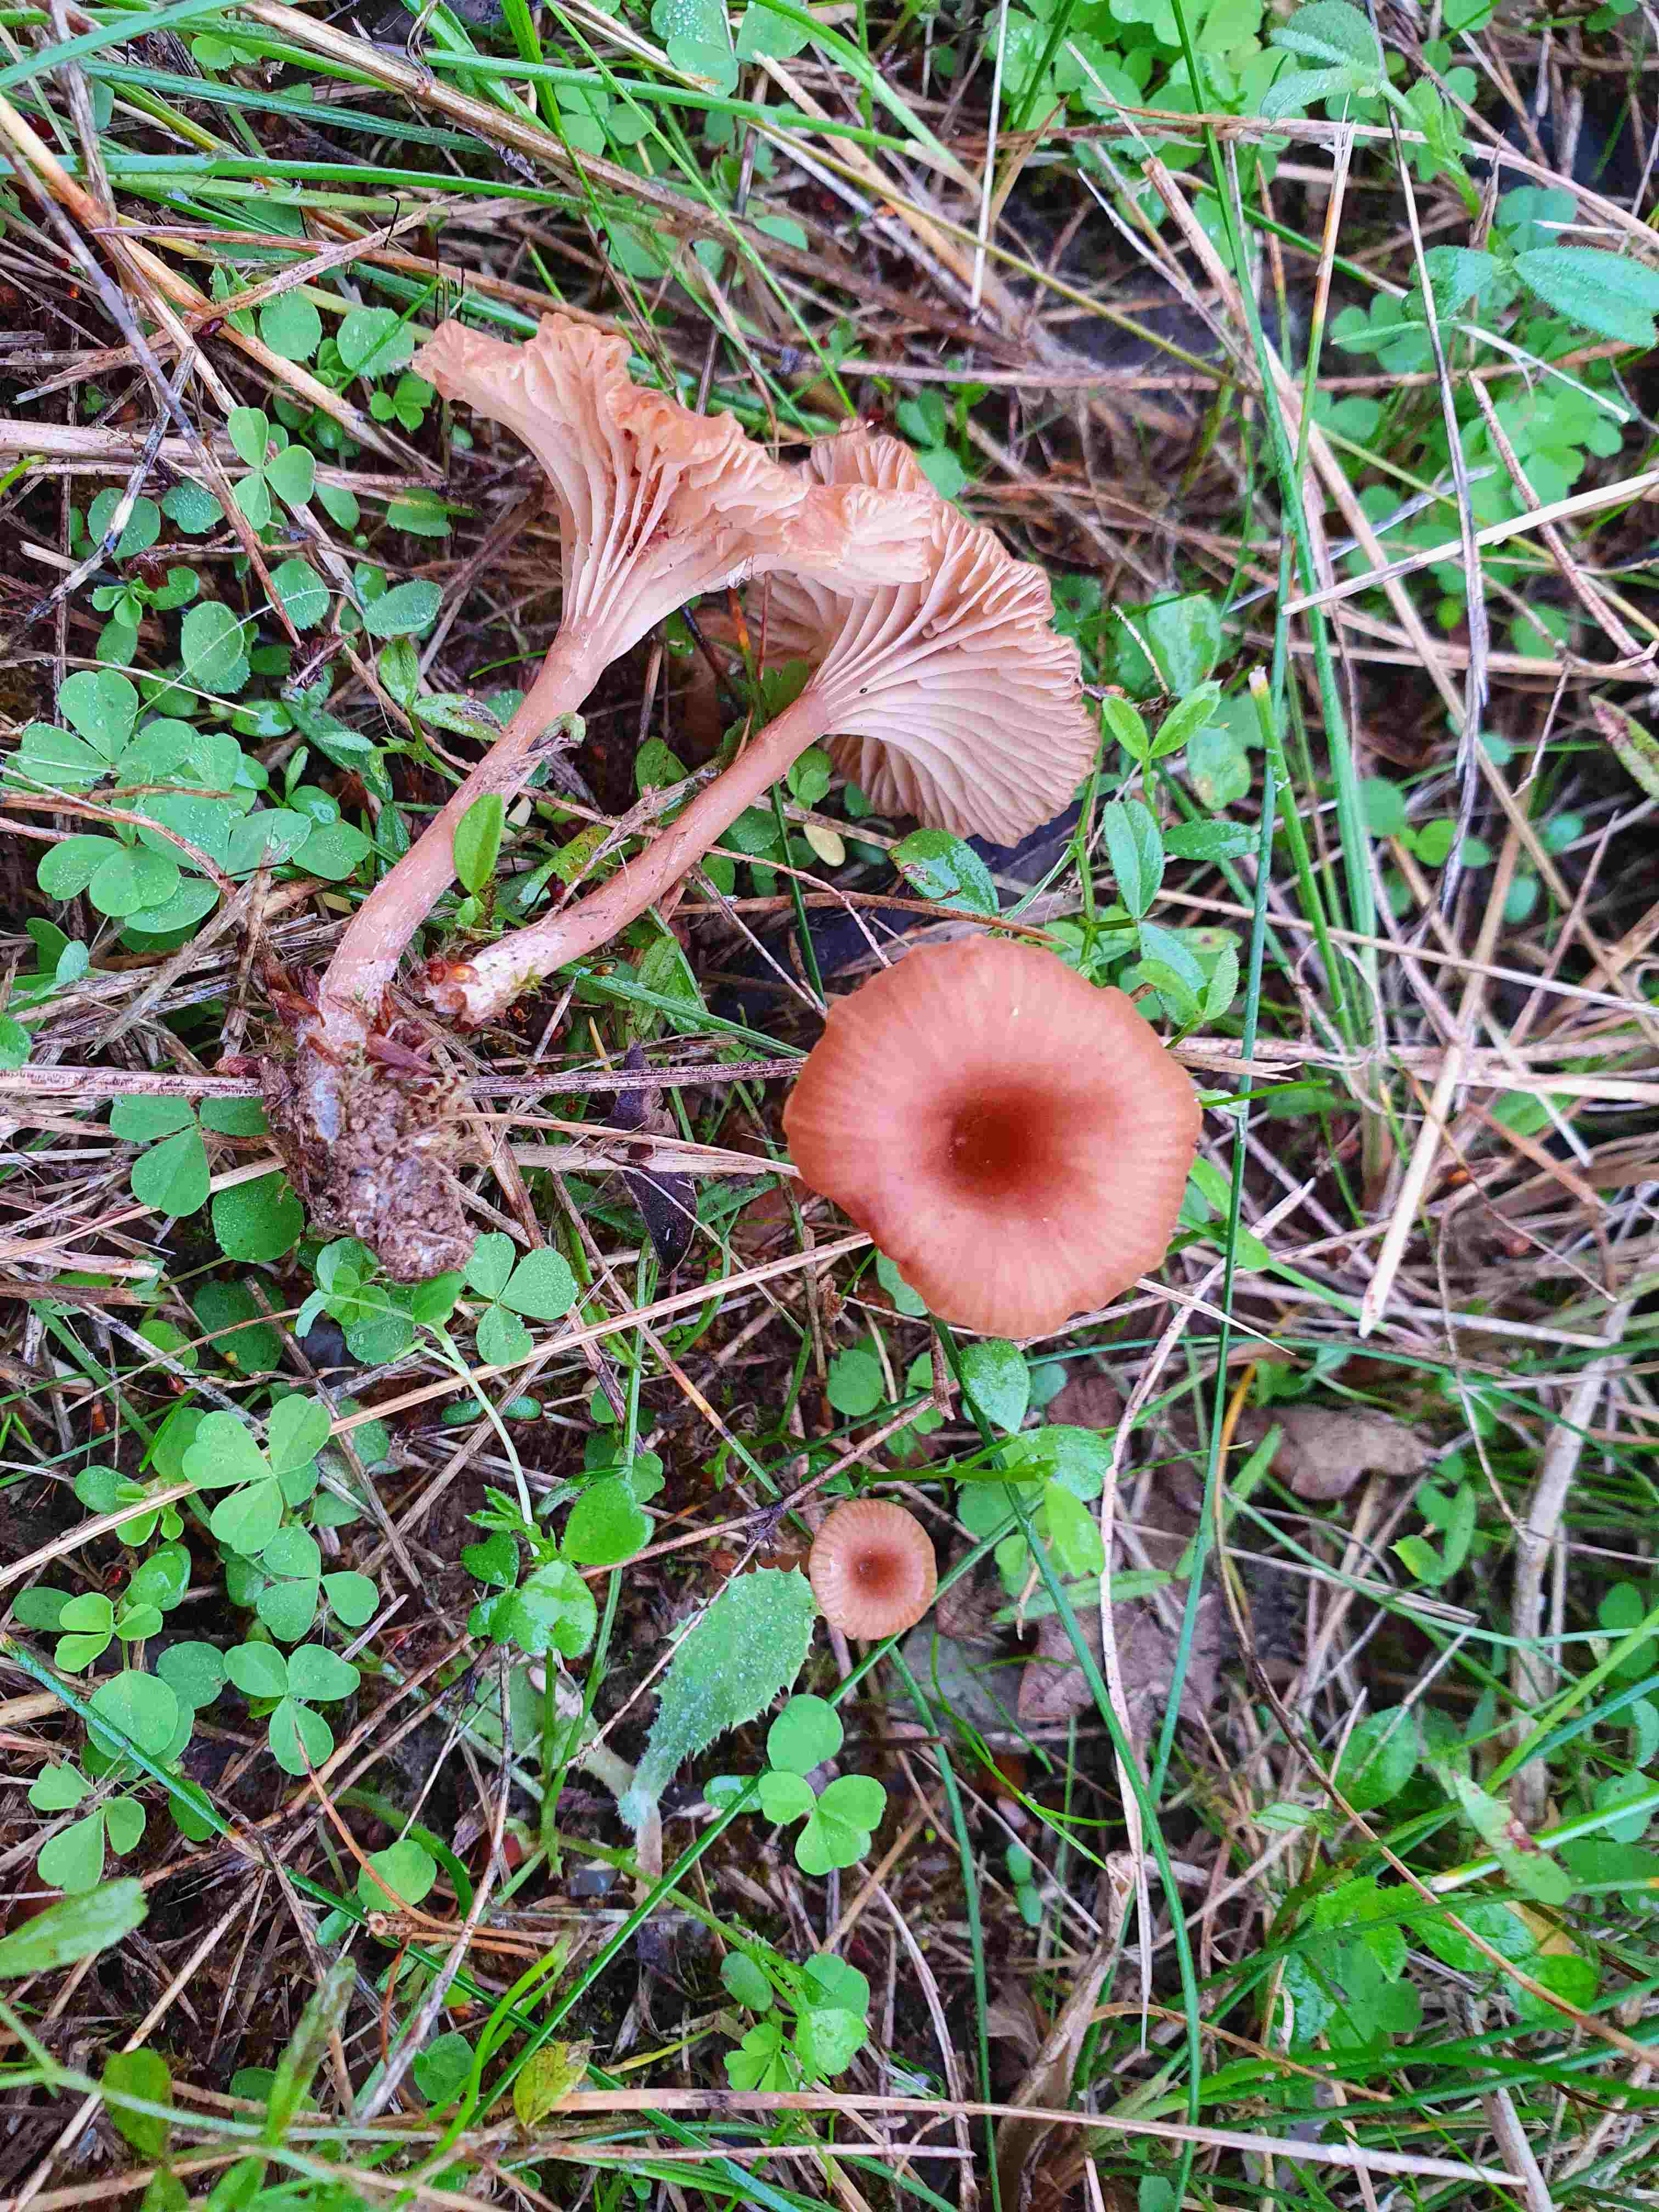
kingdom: Fungi
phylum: Basidiomycota
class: Agaricomycetes
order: Agaricales
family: Tricholomataceae
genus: Omphalina
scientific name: Omphalina pyxidata
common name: rødbrun navlehat
